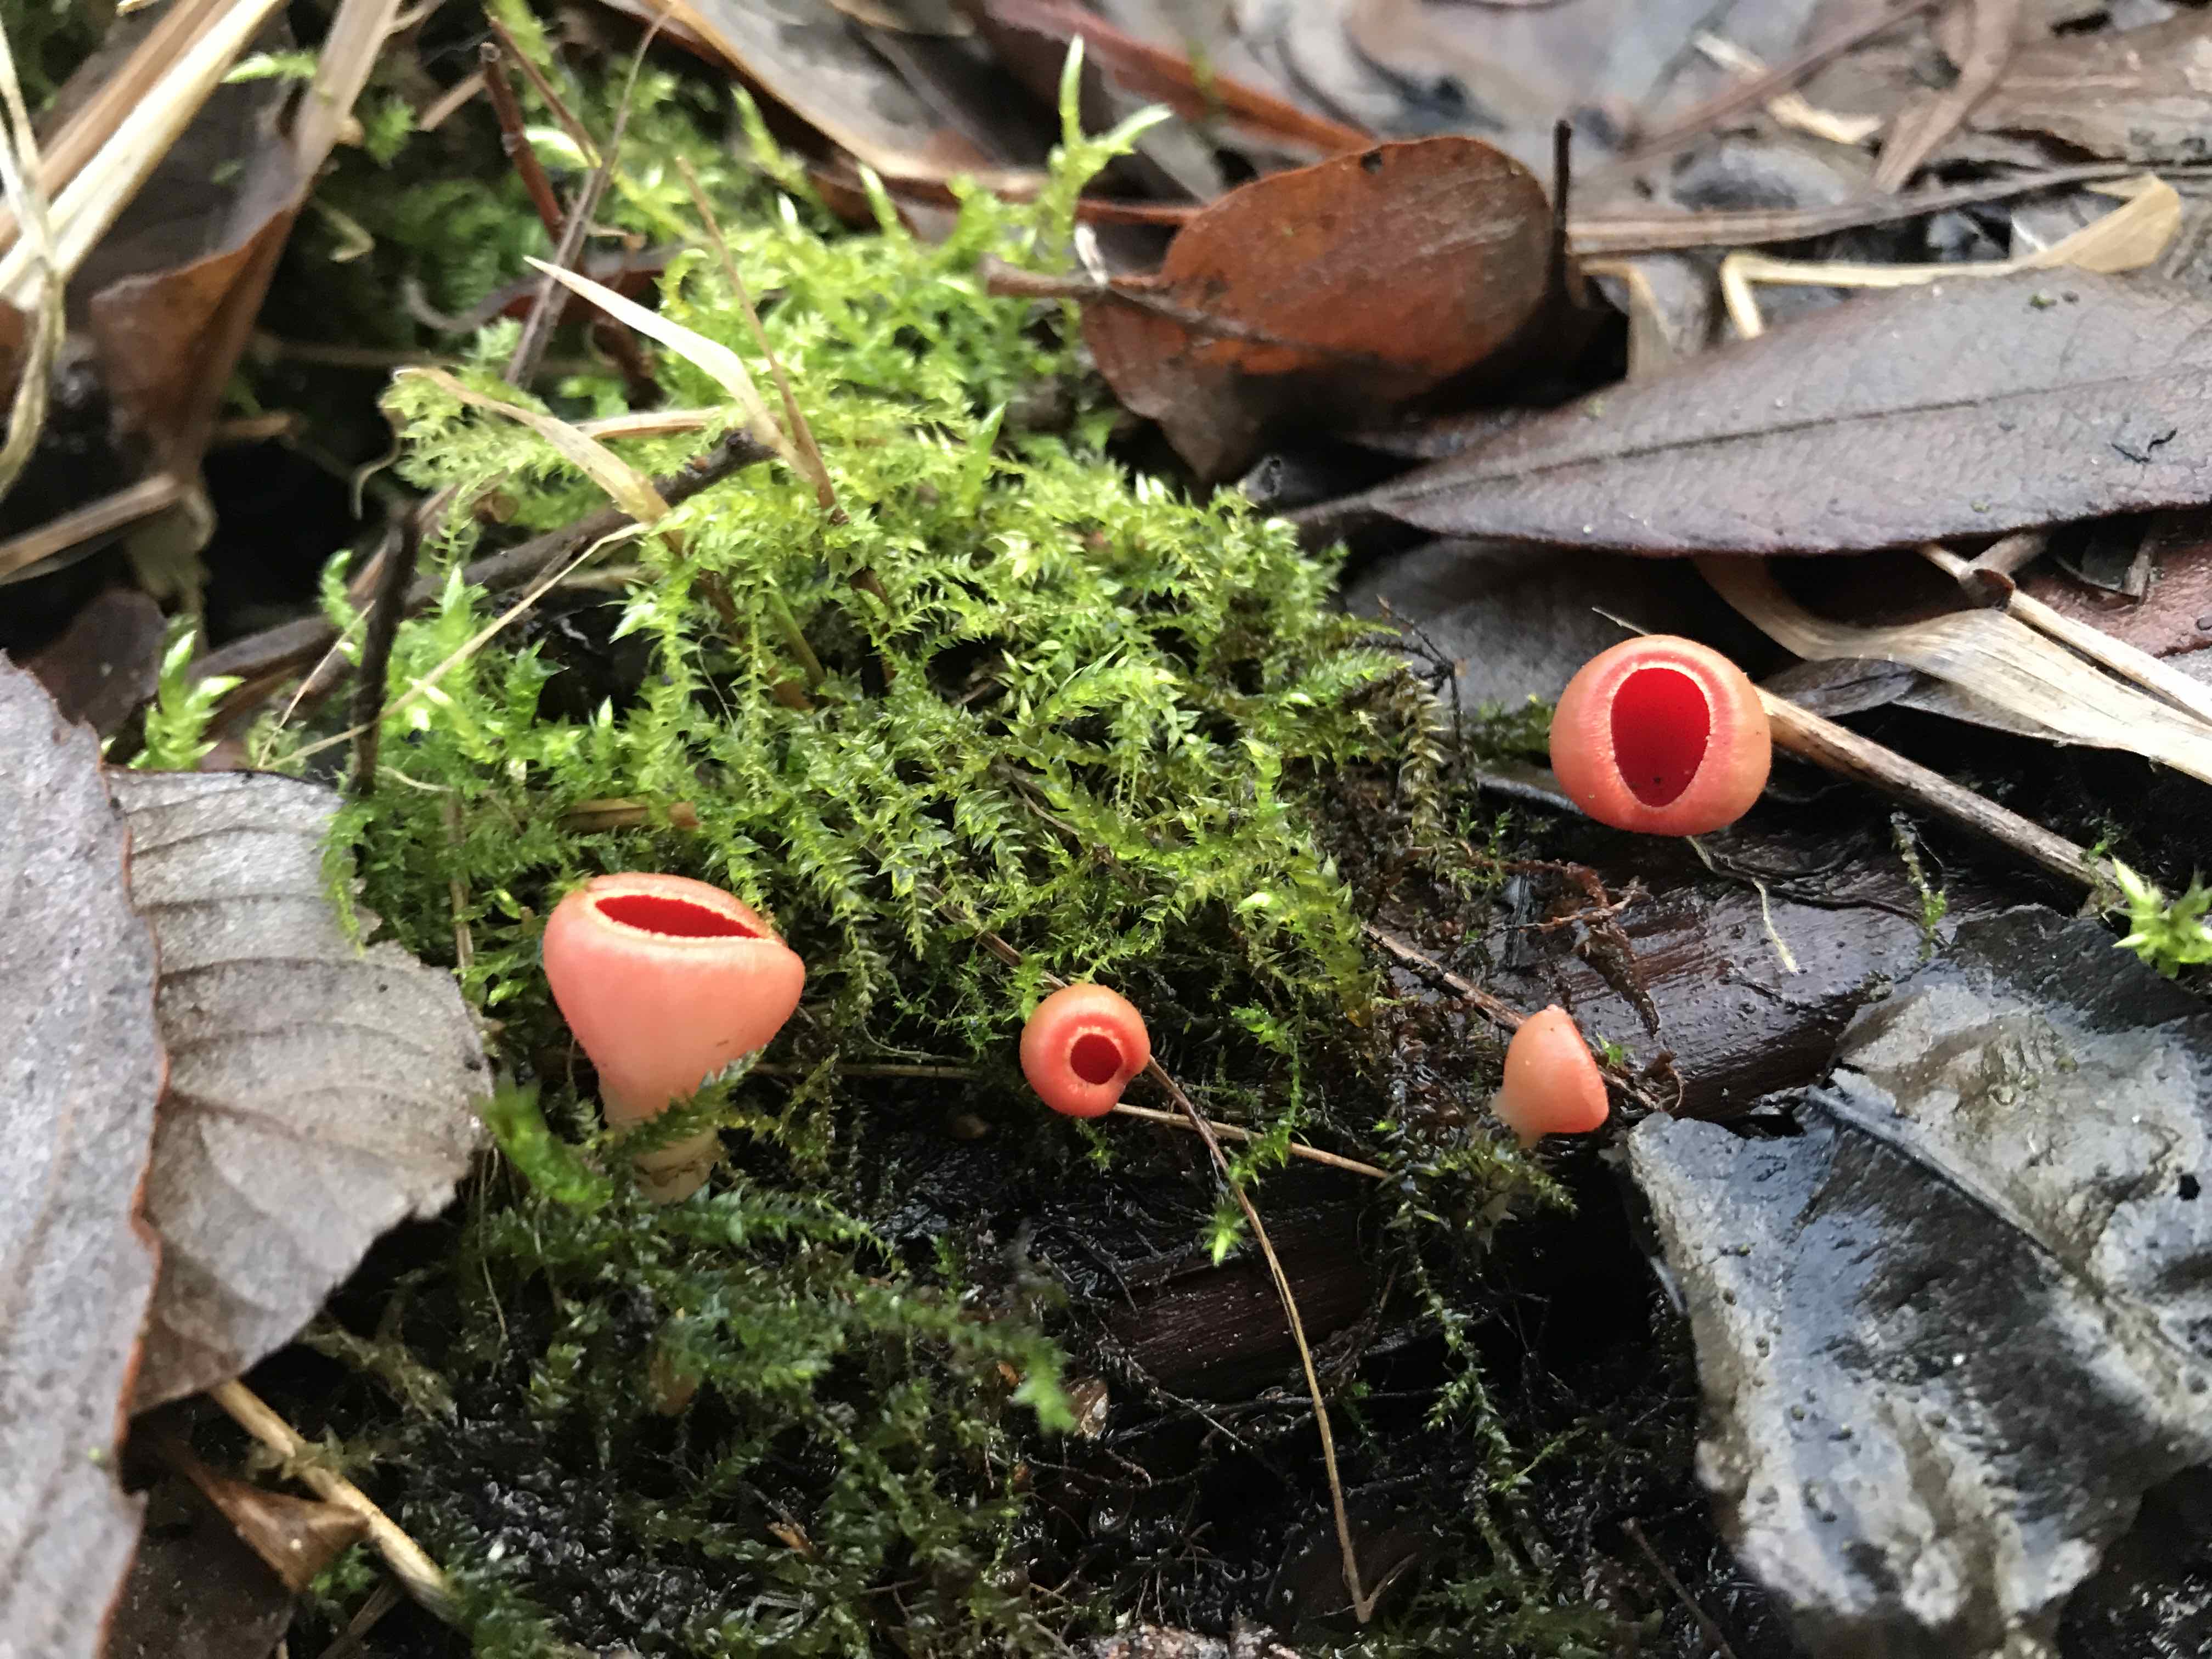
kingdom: Fungi
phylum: Ascomycota
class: Pezizomycetes
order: Pezizales
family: Sarcoscyphaceae
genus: Sarcoscypha
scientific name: Sarcoscypha austriaca
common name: krølhåret pragtbæger
